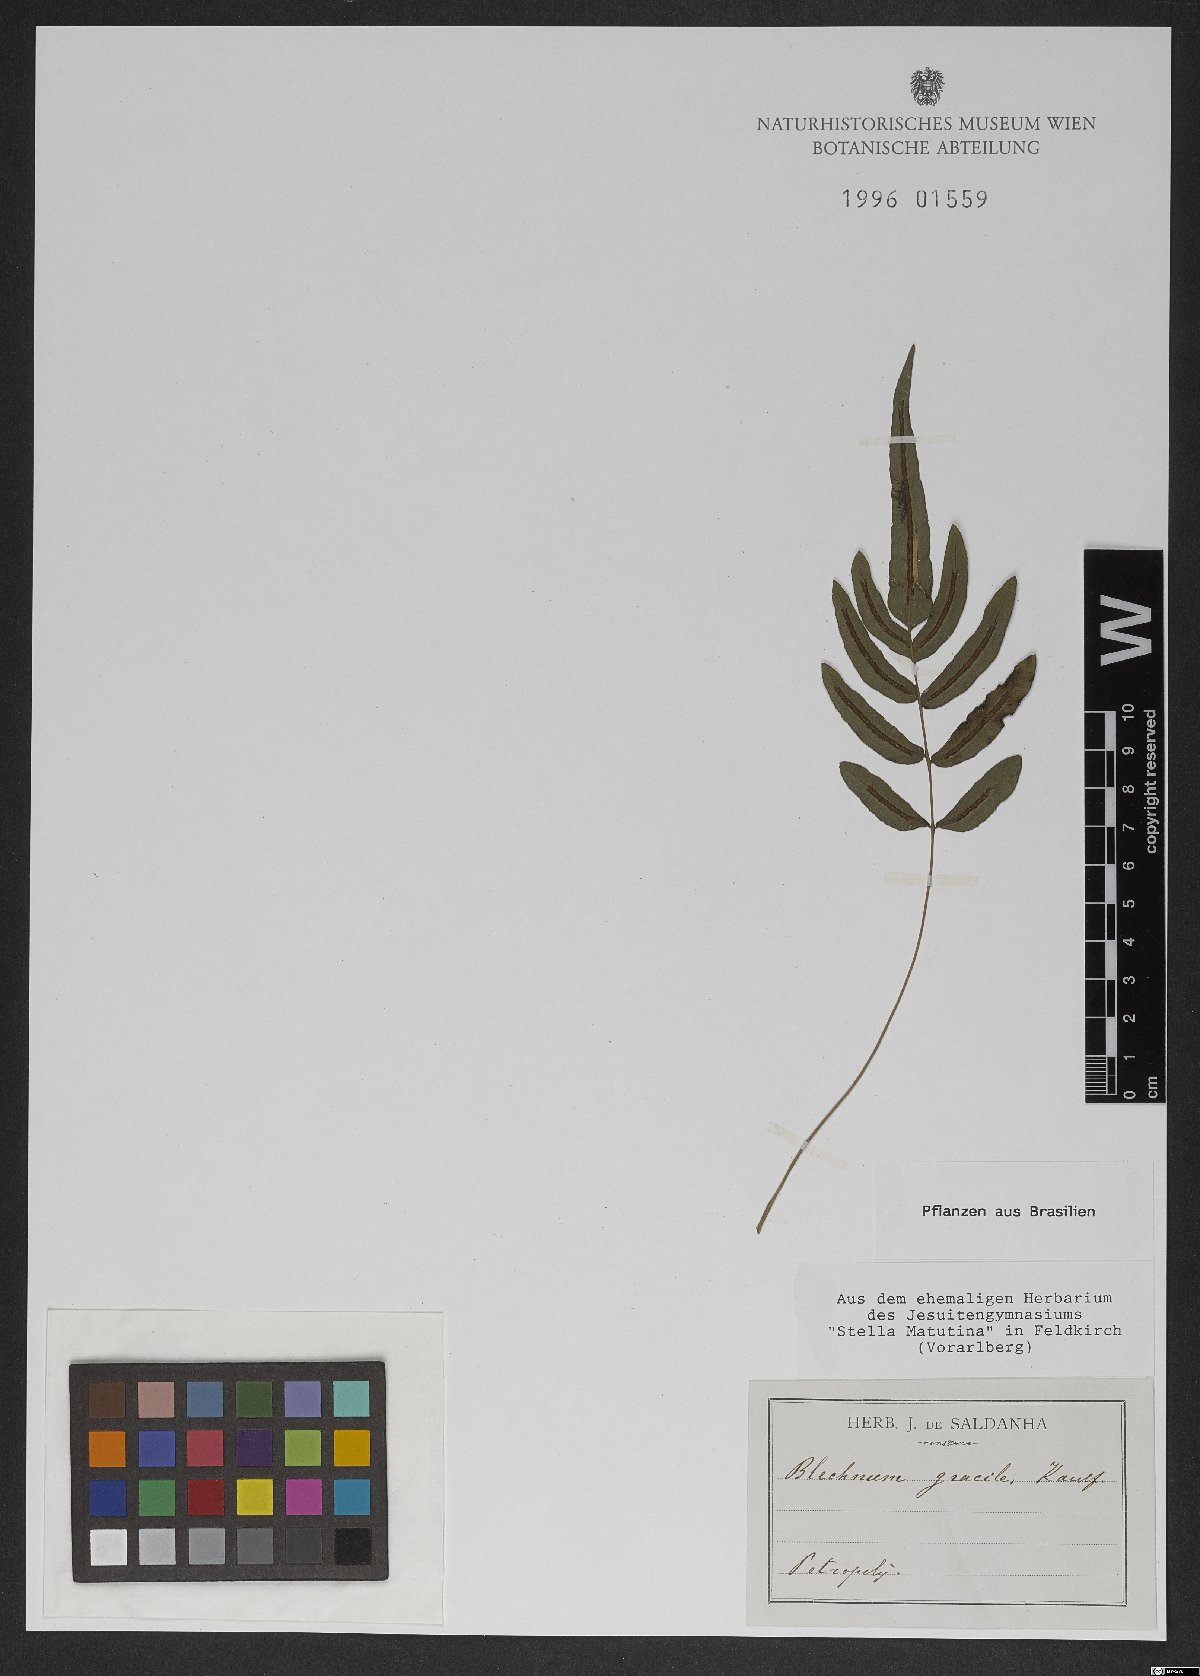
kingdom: Plantae
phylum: Tracheophyta
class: Polypodiopsida
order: Polypodiales
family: Blechnaceae
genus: Blechnum
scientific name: Blechnum gracile
